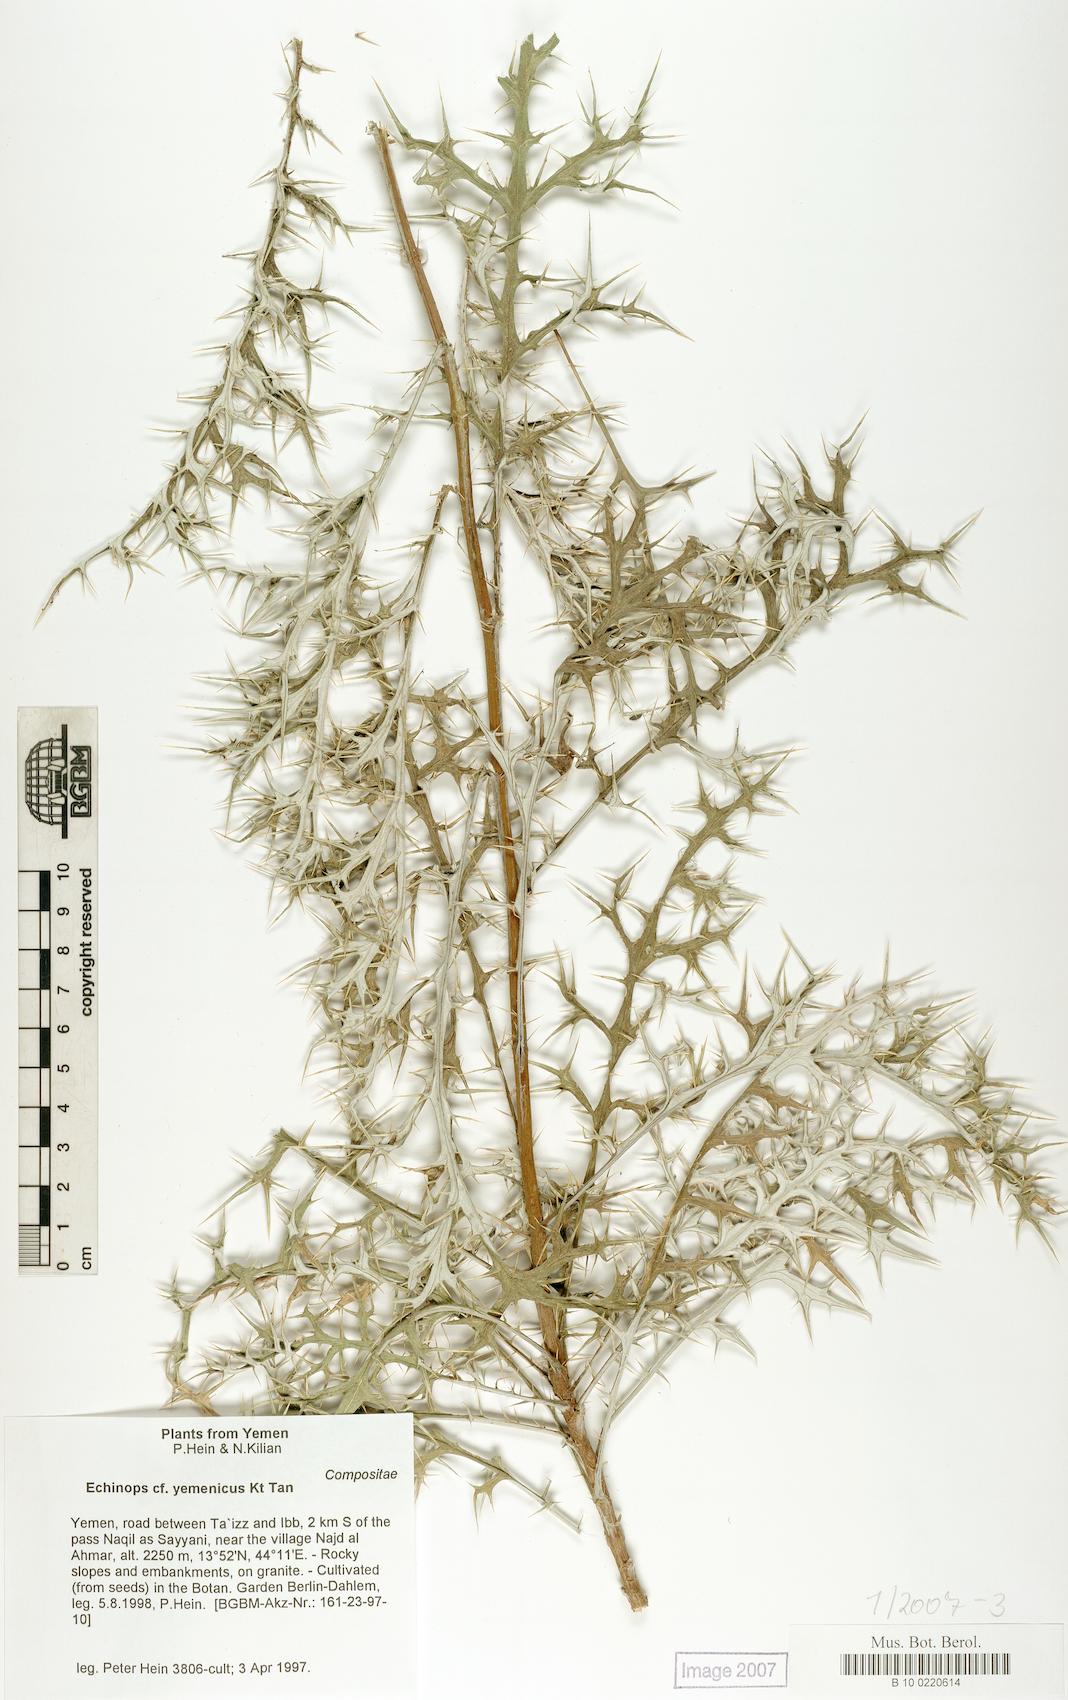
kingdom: Plantae
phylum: Tracheophyta
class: Magnoliopsida
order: Caryophyllales
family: Caryophyllaceae
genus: Stellaria
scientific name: Stellaria apetala
